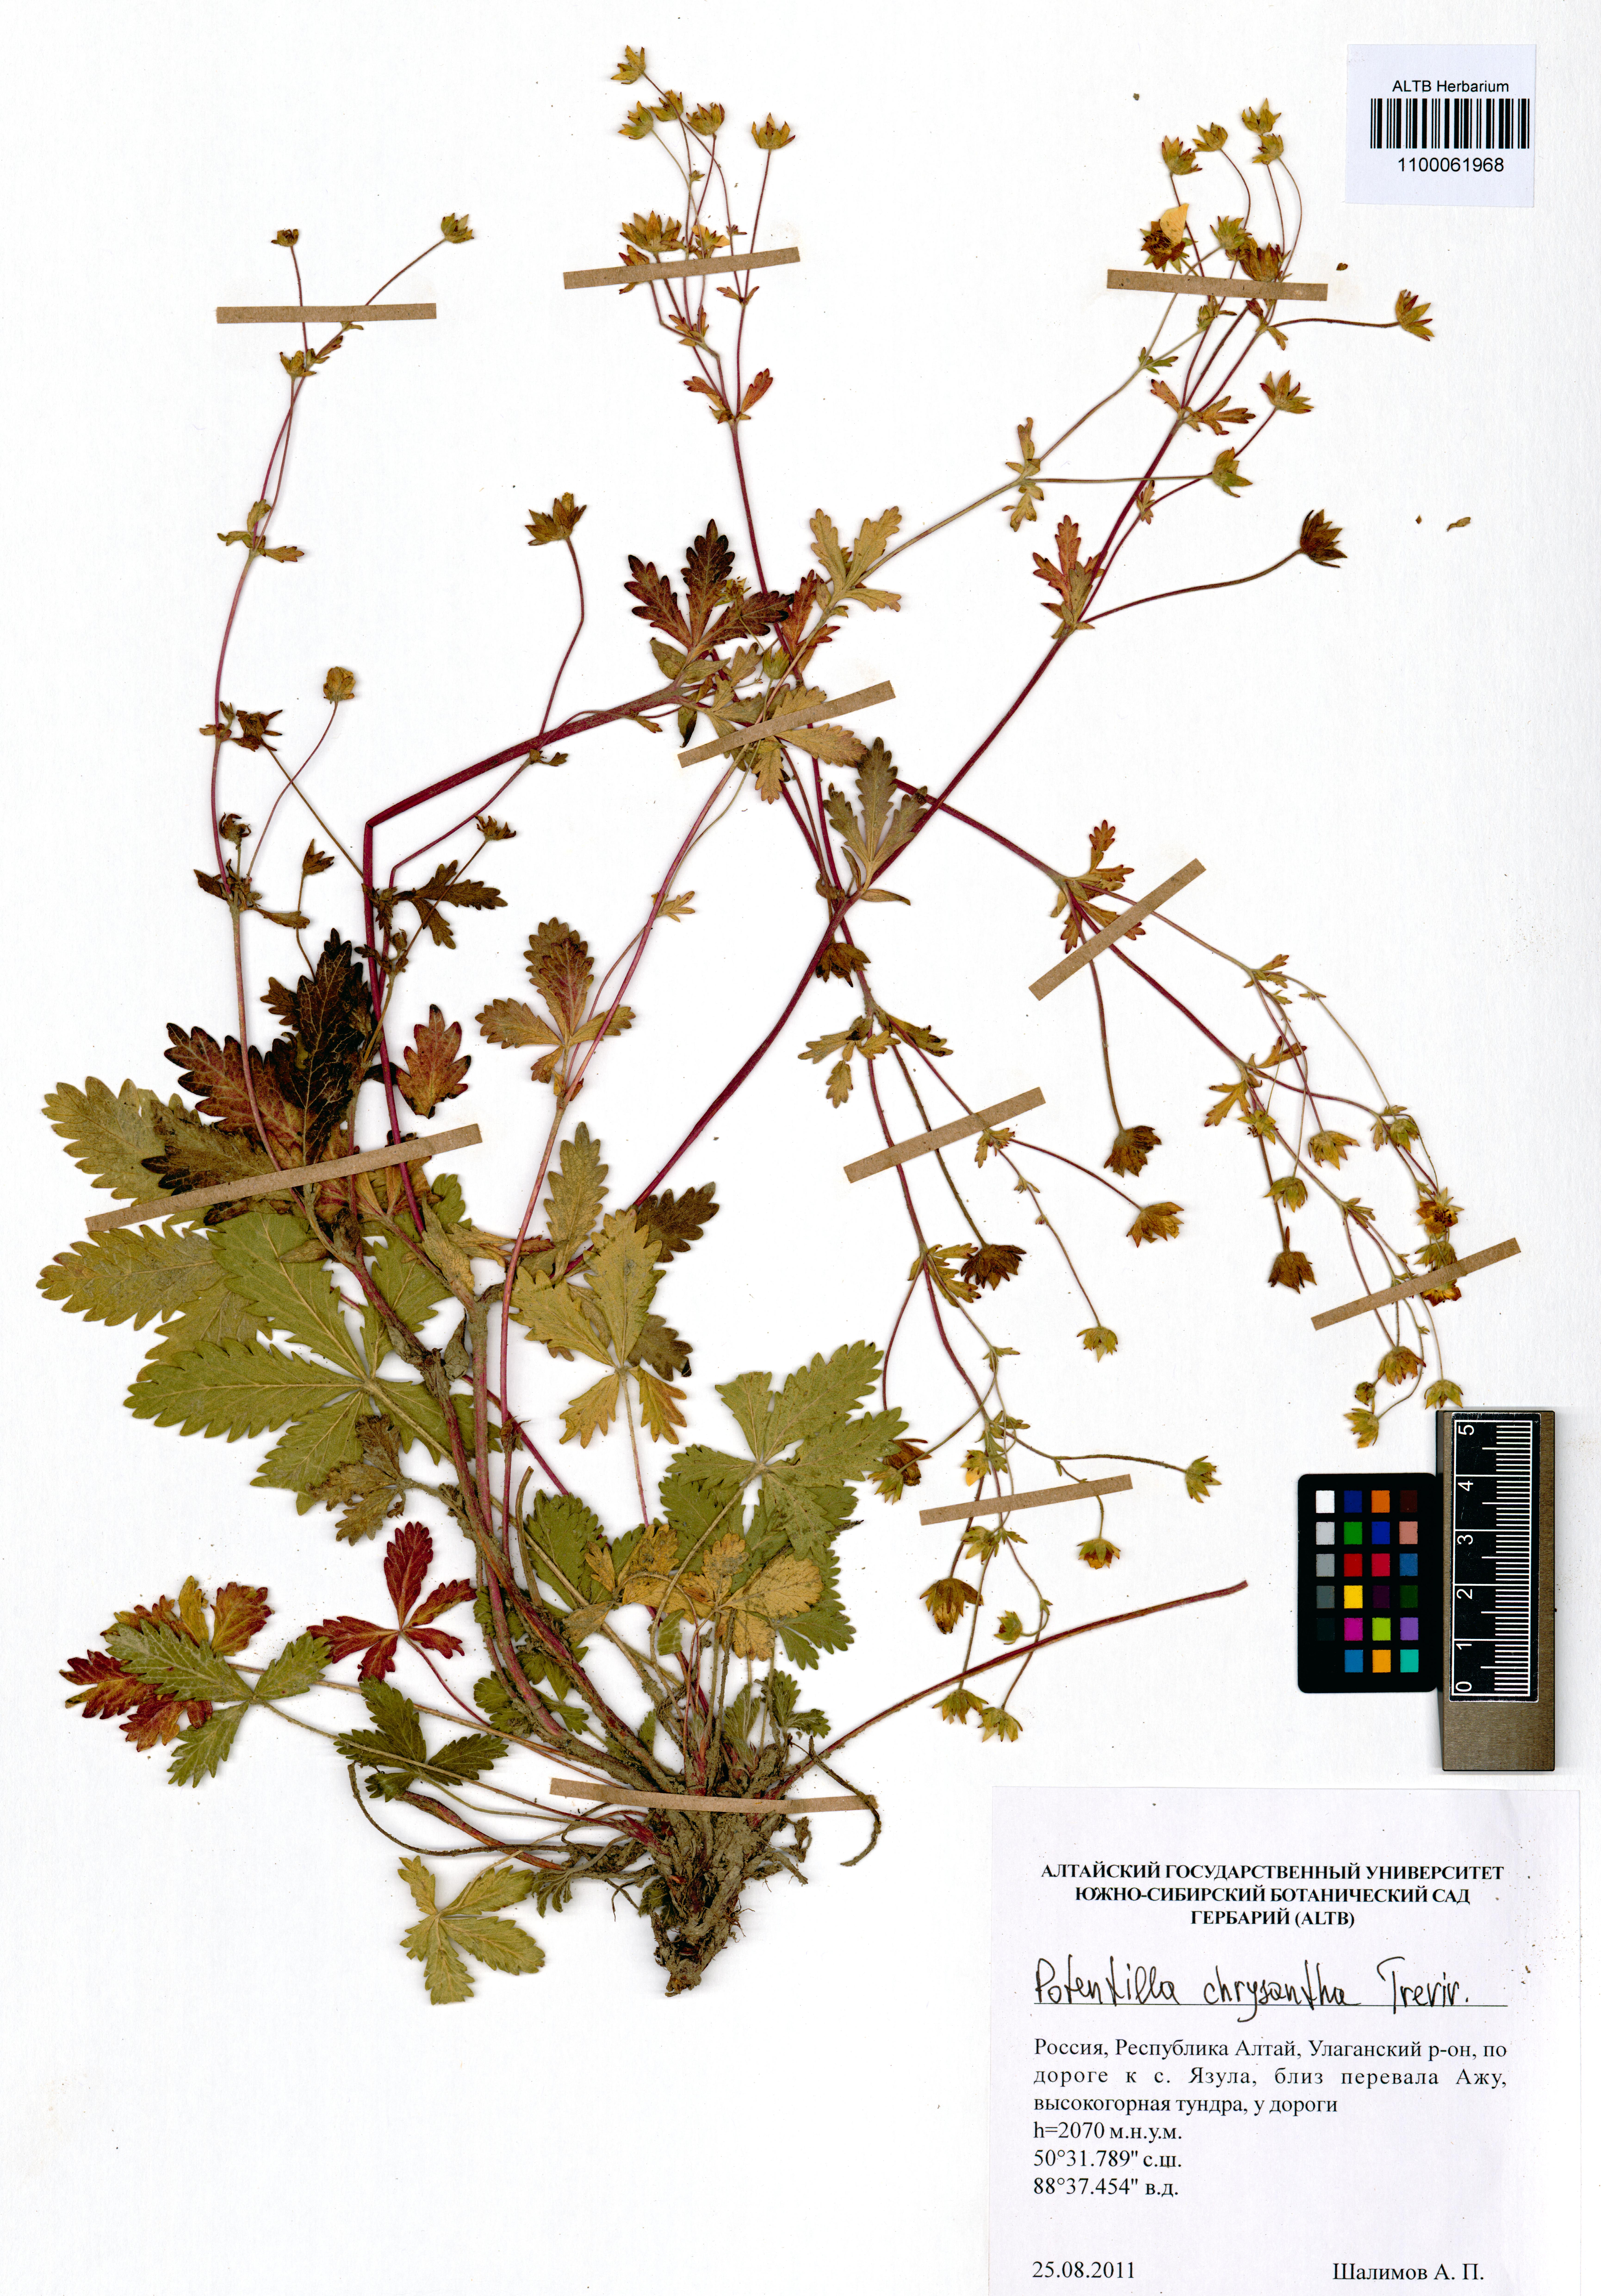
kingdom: Plantae
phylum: Tracheophyta
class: Magnoliopsida
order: Rosales
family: Rosaceae
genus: Potentilla
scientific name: Potentilla chrysantha
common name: Thuringian cinquefoil
